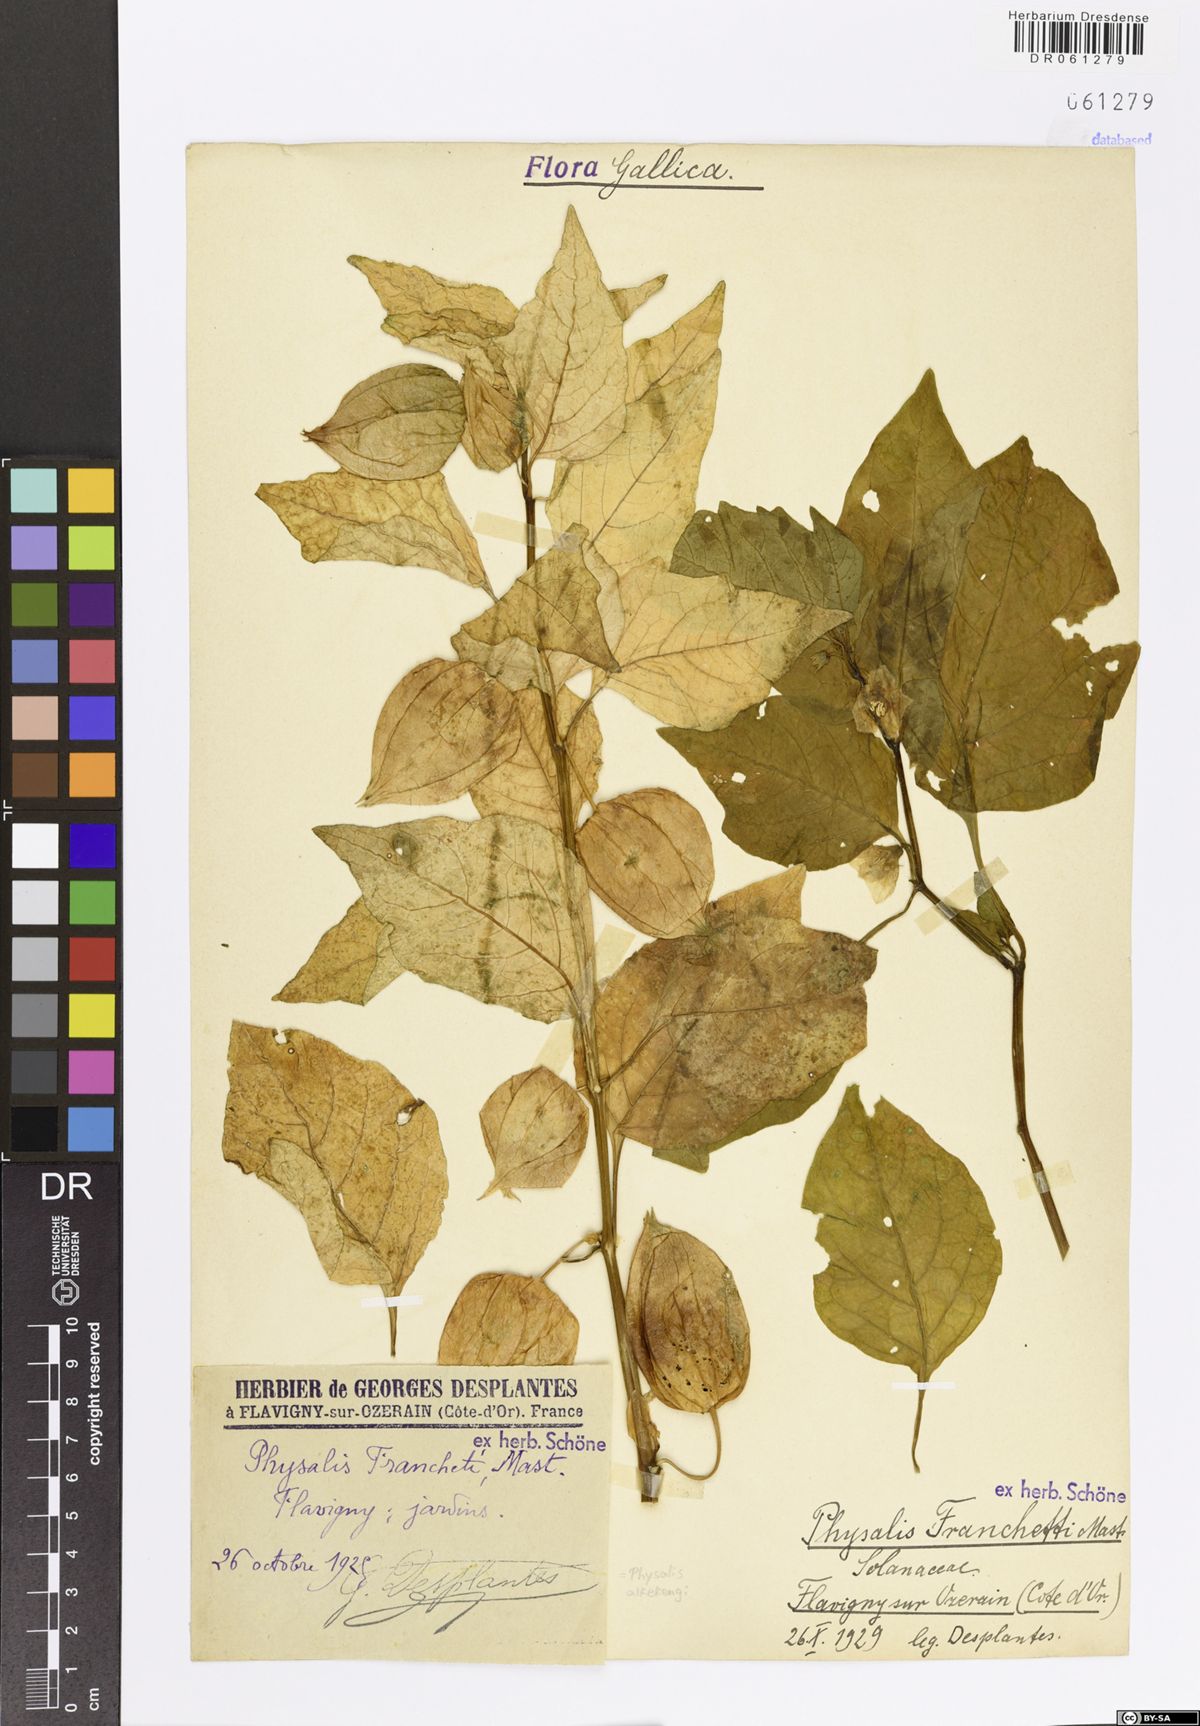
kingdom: Plantae
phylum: Tracheophyta
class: Magnoliopsida
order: Solanales
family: Solanaceae
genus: Alkekengi
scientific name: Alkekengi officinarum
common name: Japanese-lantern
